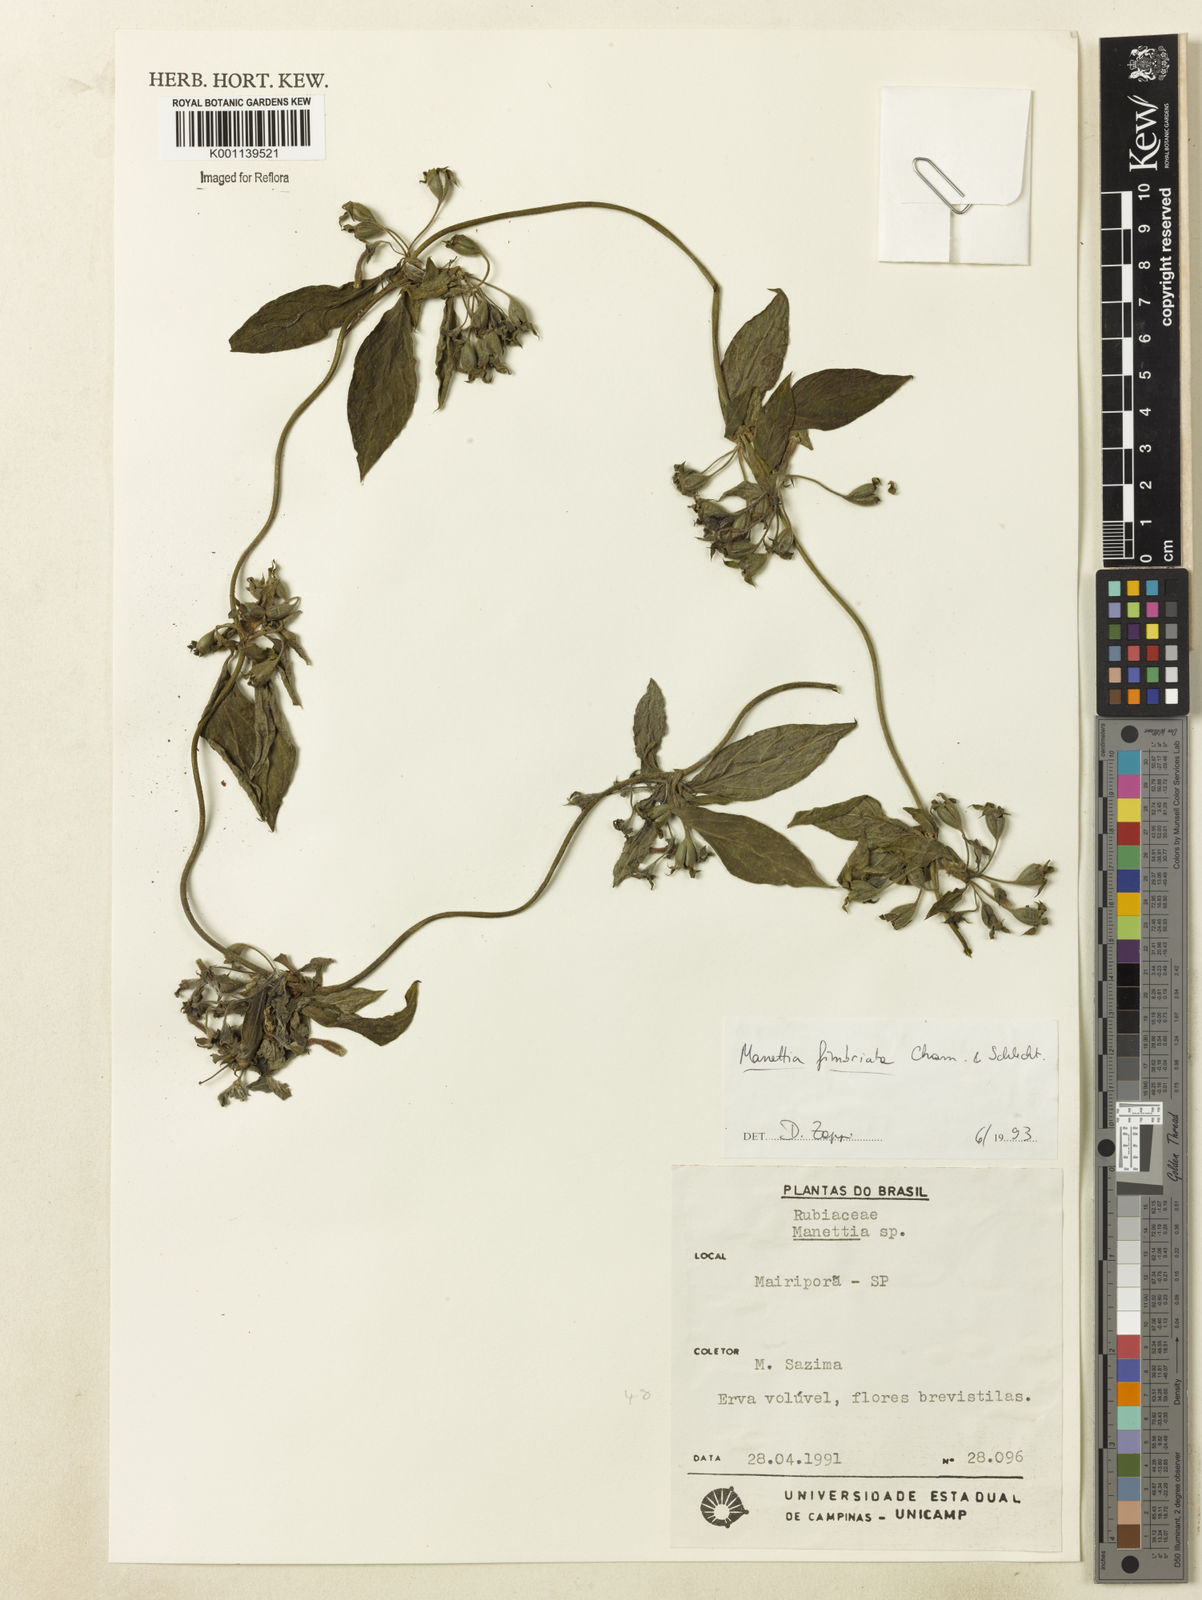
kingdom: Plantae
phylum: Tracheophyta
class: Magnoliopsida
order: Gentianales
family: Rubiaceae
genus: Manettia
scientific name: Manettia fimbriata
